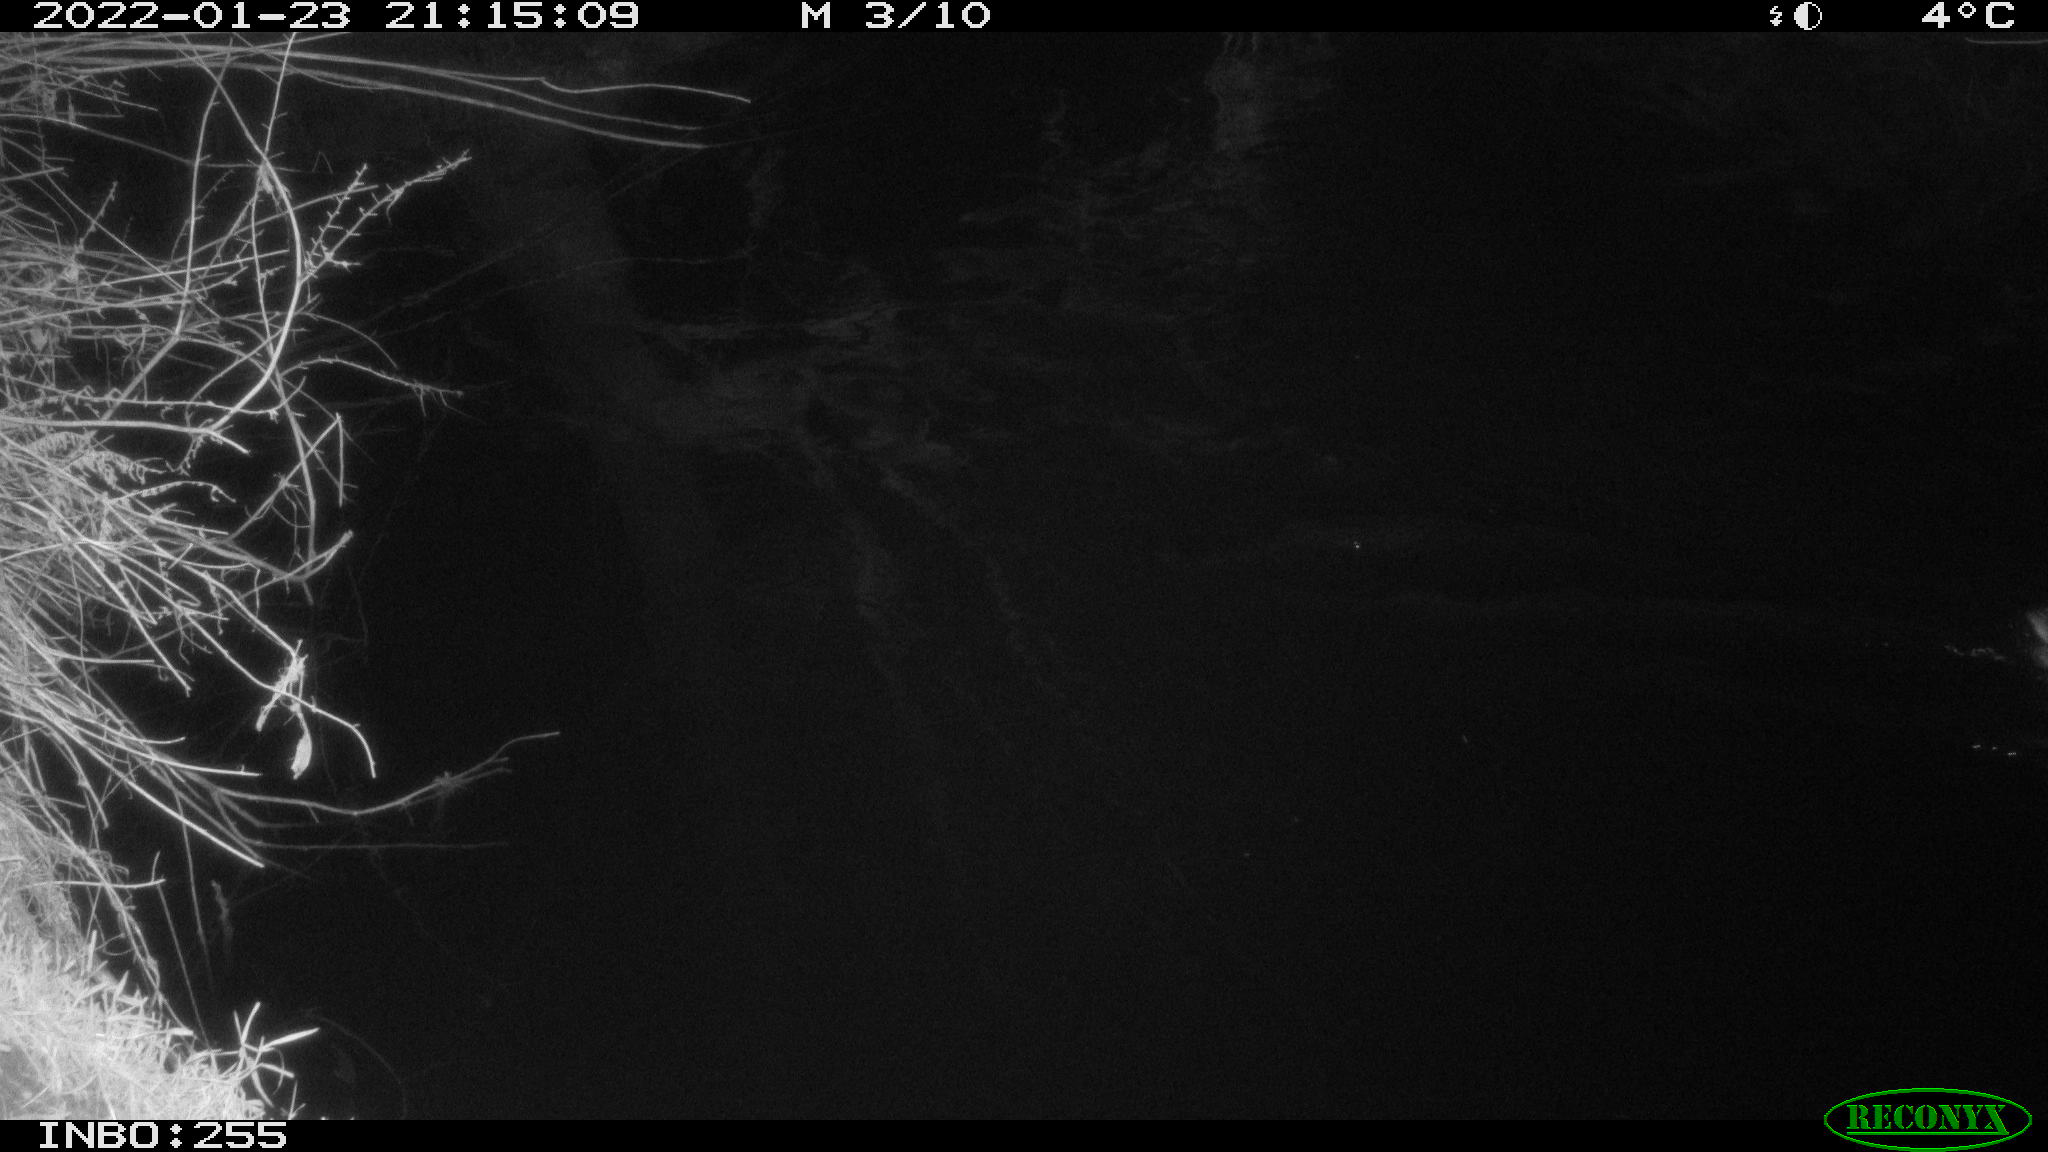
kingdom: Animalia
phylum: Chordata
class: Aves
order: Anseriformes
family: Anatidae
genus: Anas
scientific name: Anas
